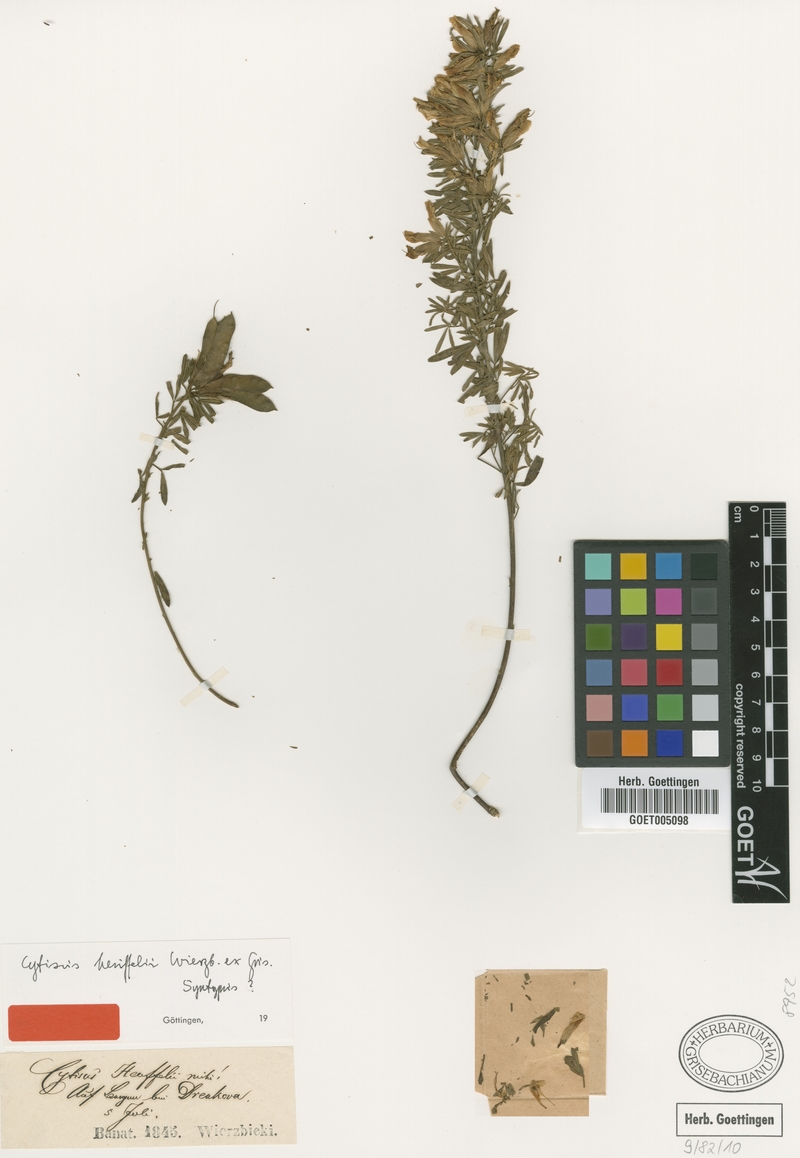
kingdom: Plantae
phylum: Tracheophyta
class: Magnoliopsida
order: Fabales
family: Fabaceae
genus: Chamaecytisus
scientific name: Chamaecytisus heuffelii
